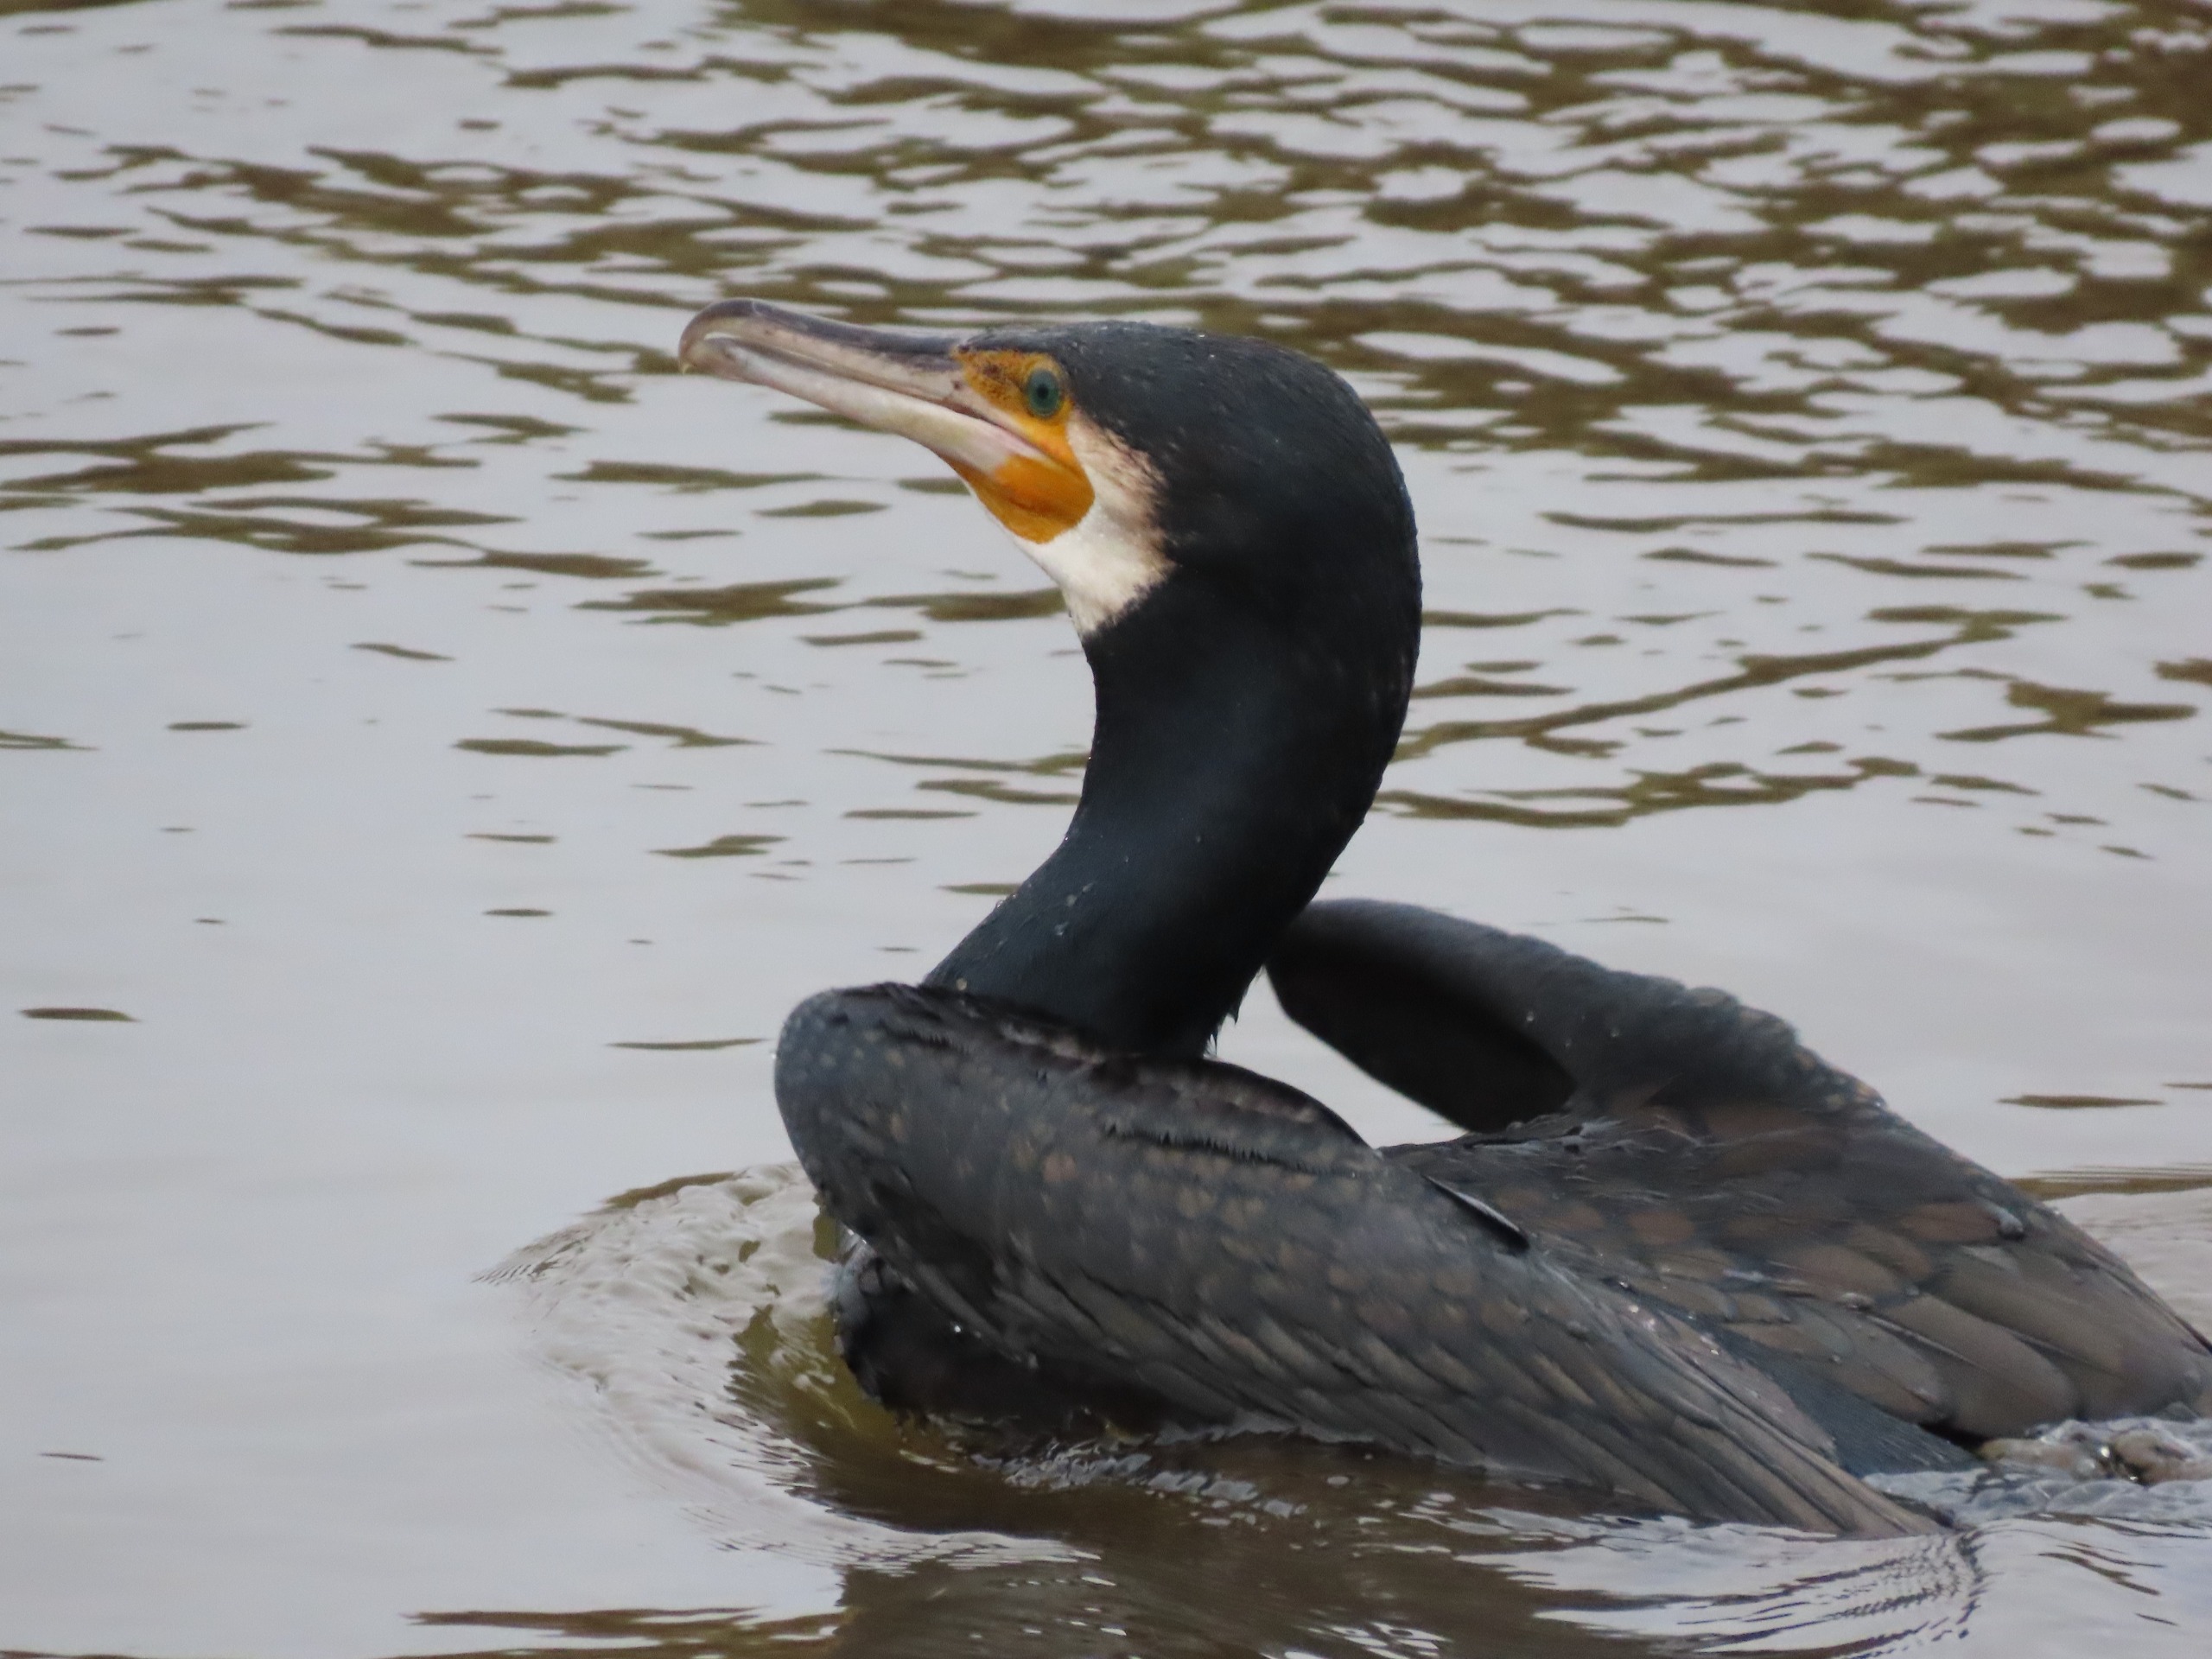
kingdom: Animalia
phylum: Chordata
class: Aves
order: Suliformes
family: Phalacrocoracidae
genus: Phalacrocorax
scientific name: Phalacrocorax carbo
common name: Skarv
